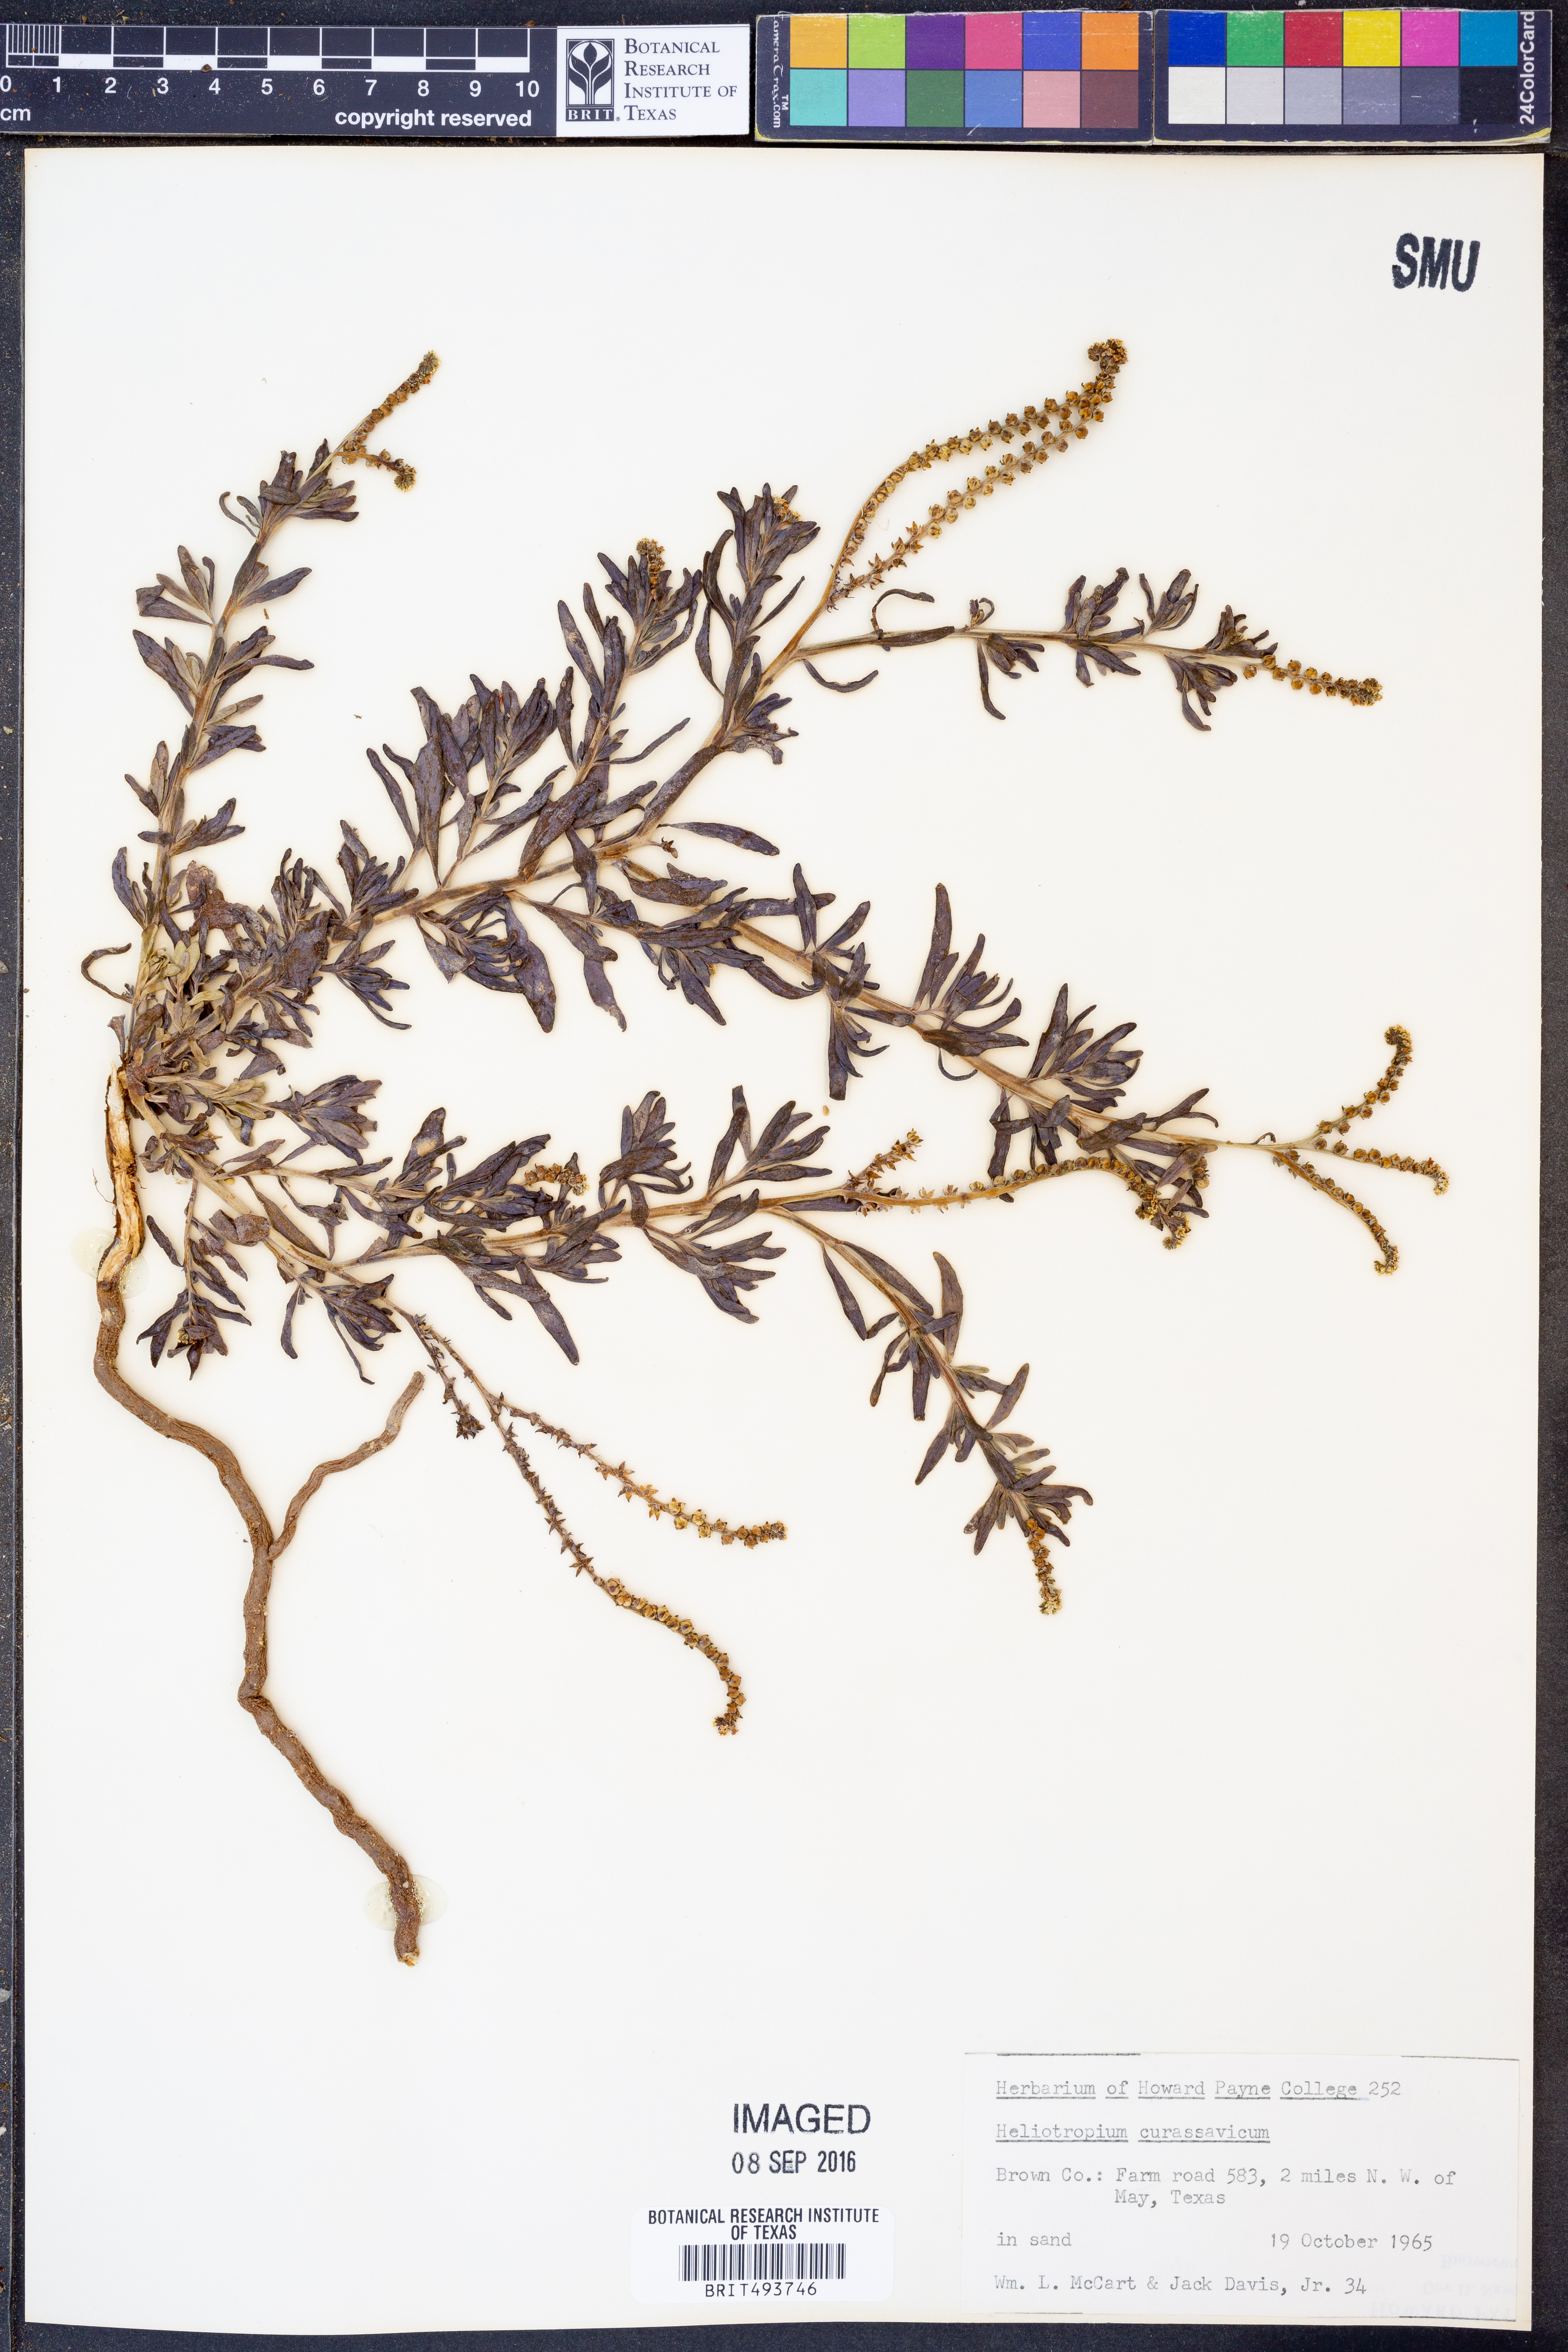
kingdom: Plantae
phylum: Tracheophyta
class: Magnoliopsida
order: Boraginales
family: Heliotropiaceae
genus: Heliotropium
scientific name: Heliotropium curassavicum
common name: Seaside heliotrope
